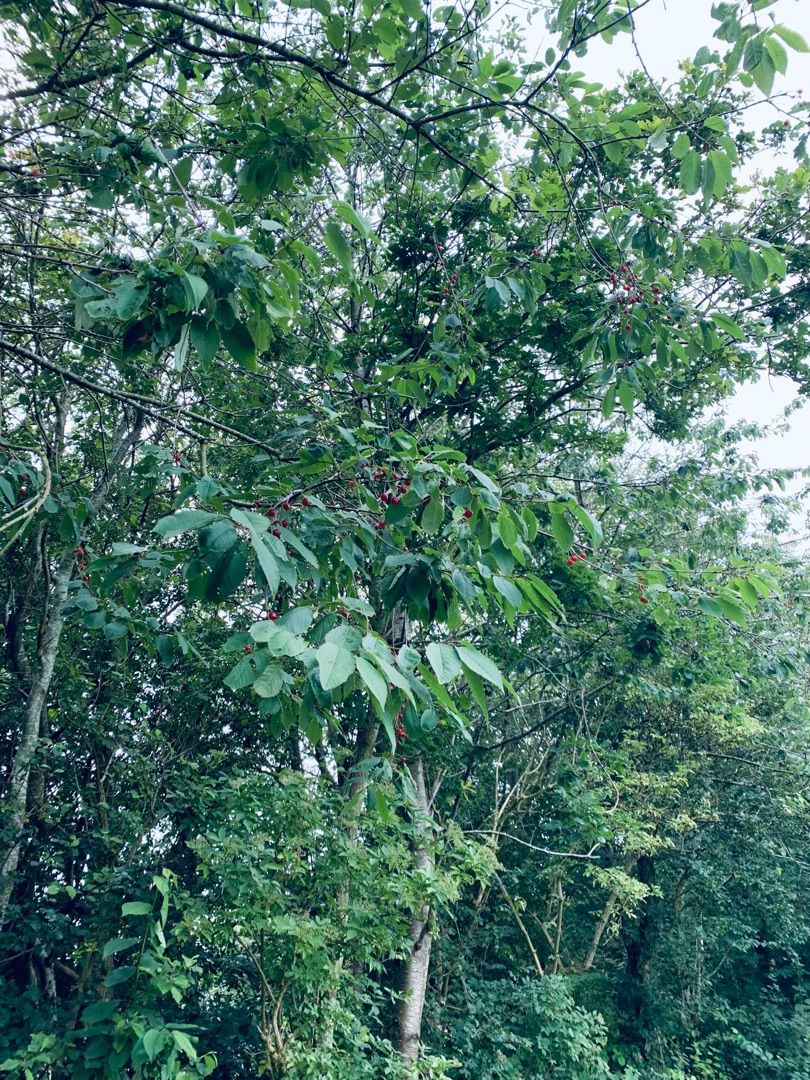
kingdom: Plantae
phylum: Tracheophyta
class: Magnoliopsida
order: Rosales
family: Rosaceae
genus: Prunus
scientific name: Prunus avium
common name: Fugle-kirsebær
